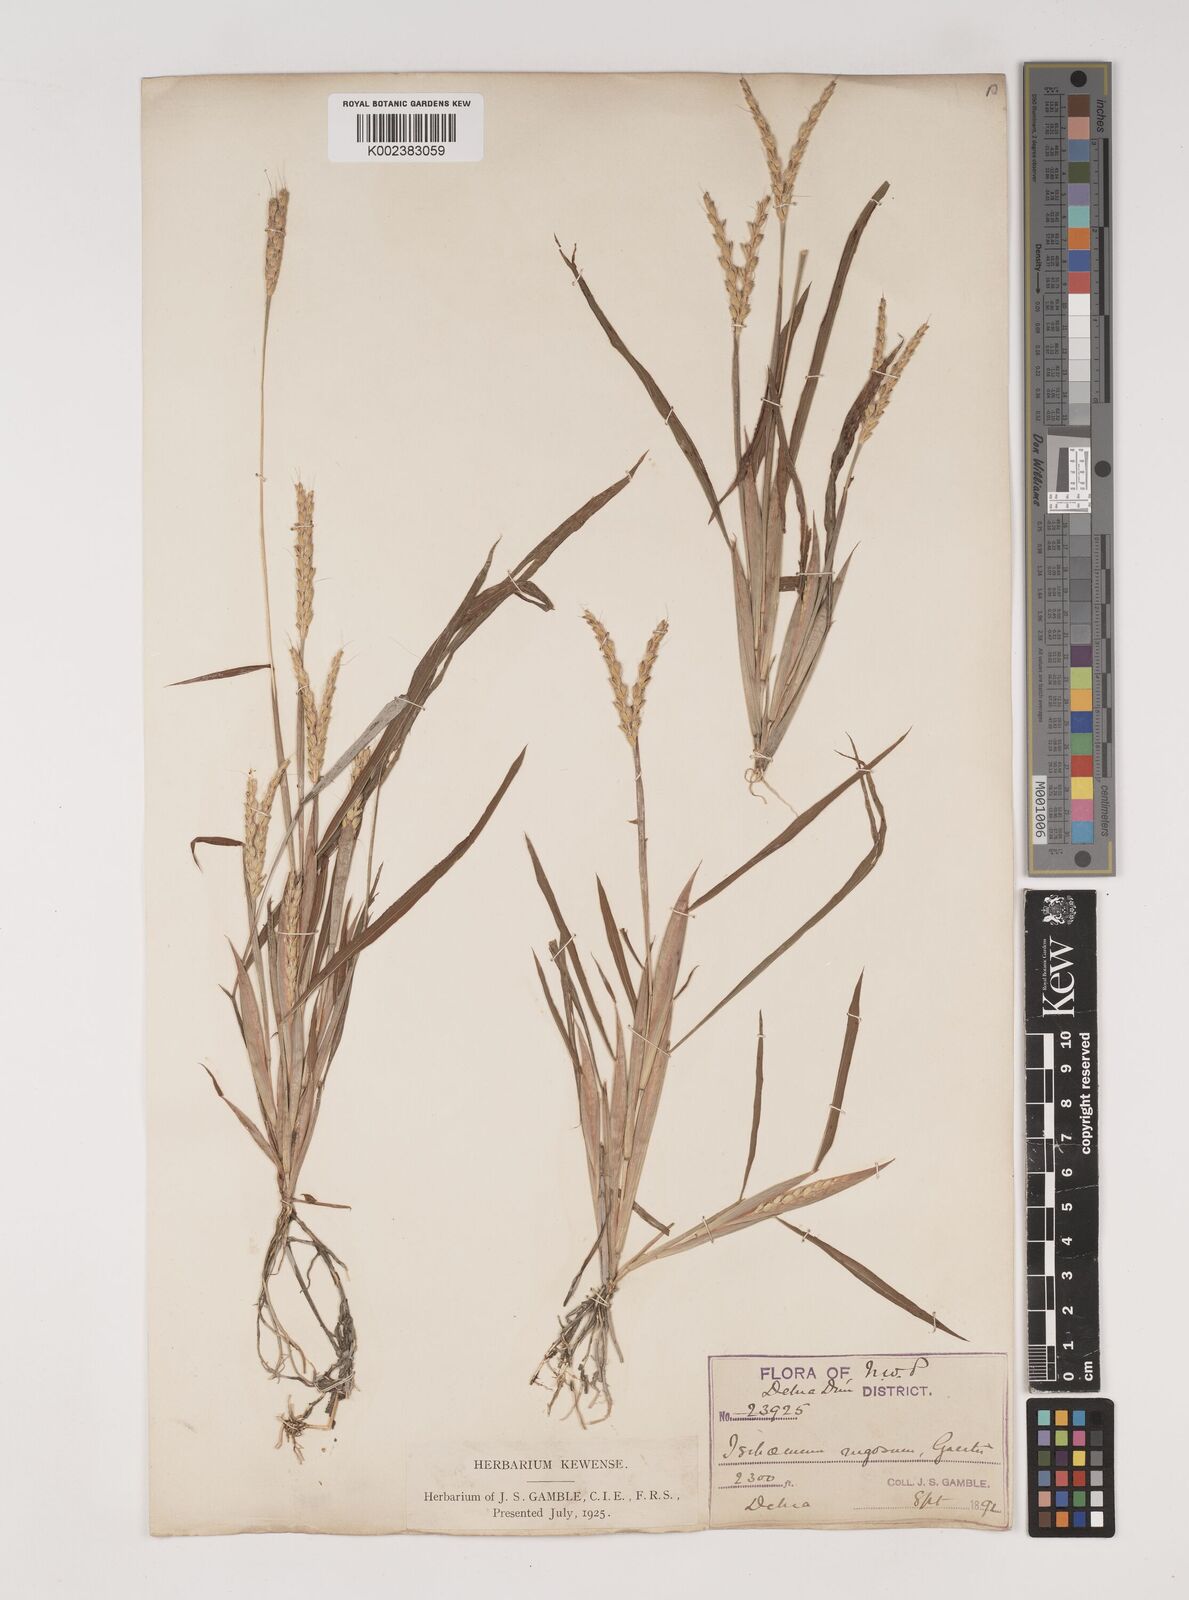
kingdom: Plantae
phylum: Tracheophyta
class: Liliopsida
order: Poales
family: Poaceae
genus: Ischaemum
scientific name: Ischaemum rugosum
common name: Saramatta grass
